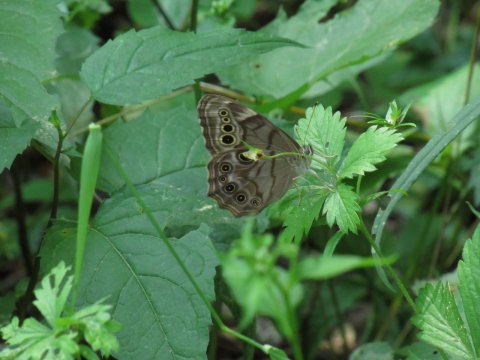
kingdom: Animalia
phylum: Arthropoda
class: Insecta
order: Lepidoptera
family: Nymphalidae
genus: Lethe
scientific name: Lethe anthedon
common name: Northern Pearly-Eye
